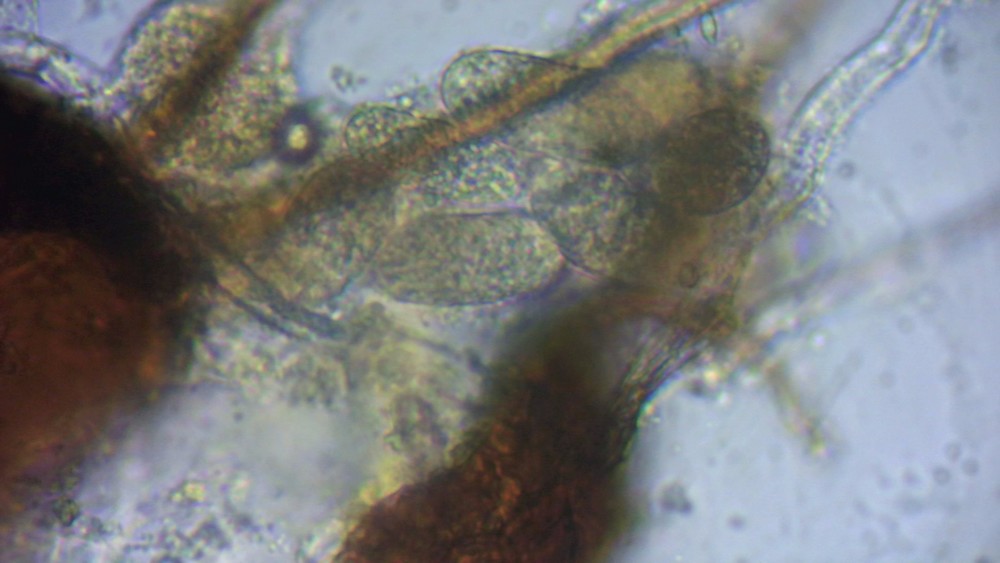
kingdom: Fungi
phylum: Ascomycota
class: Leotiomycetes
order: Helotiales
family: Erysiphaceae
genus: Erysiphe
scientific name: Erysiphe aquilegiae
